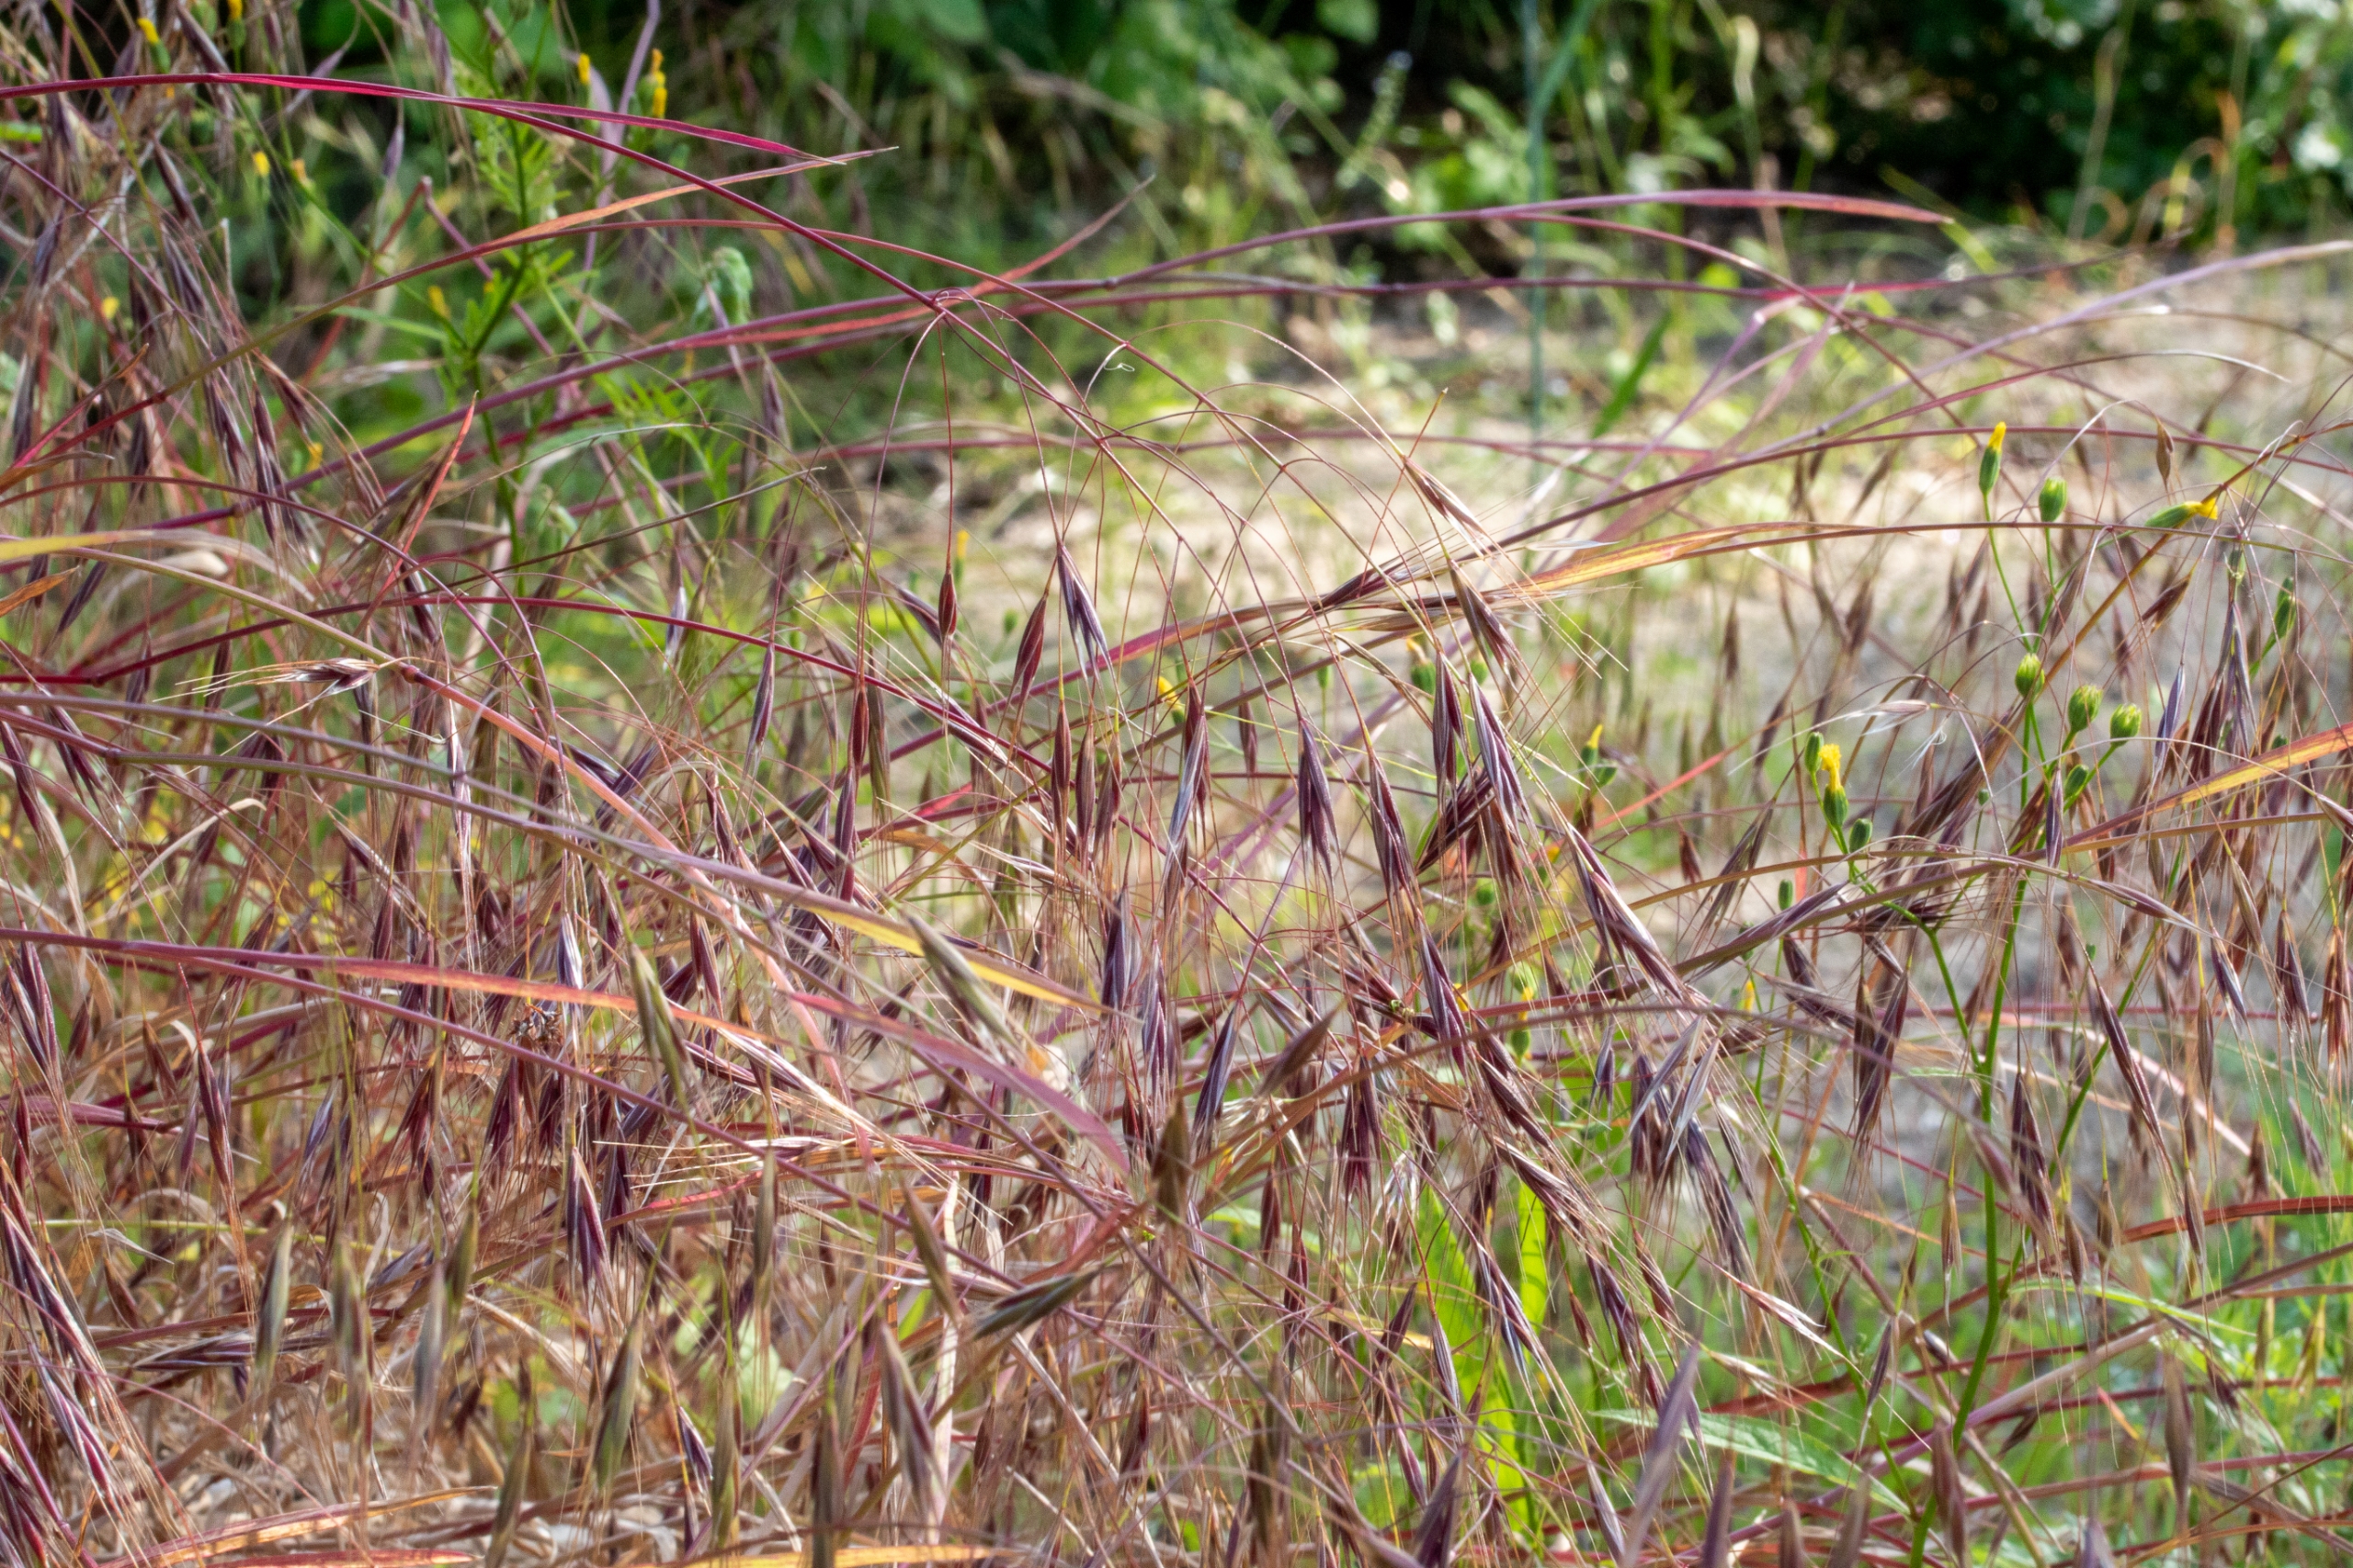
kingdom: Plantae
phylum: Tracheophyta
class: Liliopsida
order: Poales
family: Poaceae
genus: Bromus
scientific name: Bromus sterilis
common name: Gold hejre
